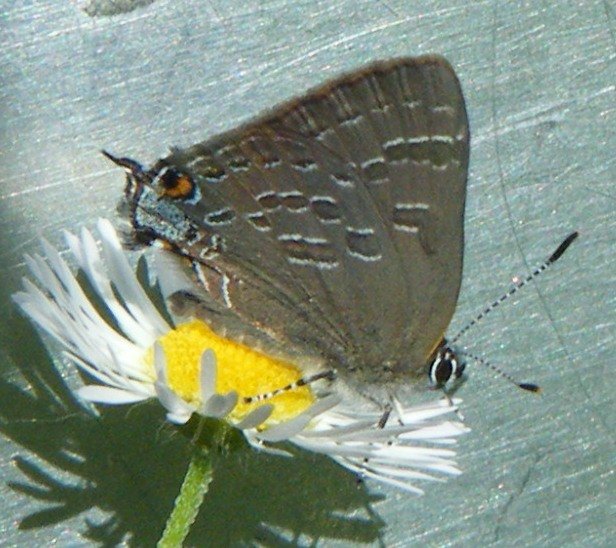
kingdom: Animalia
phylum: Arthropoda
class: Insecta
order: Lepidoptera
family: Lycaenidae
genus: Strymon
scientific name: Strymon caryaevorus
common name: Hickory Hairstreak
